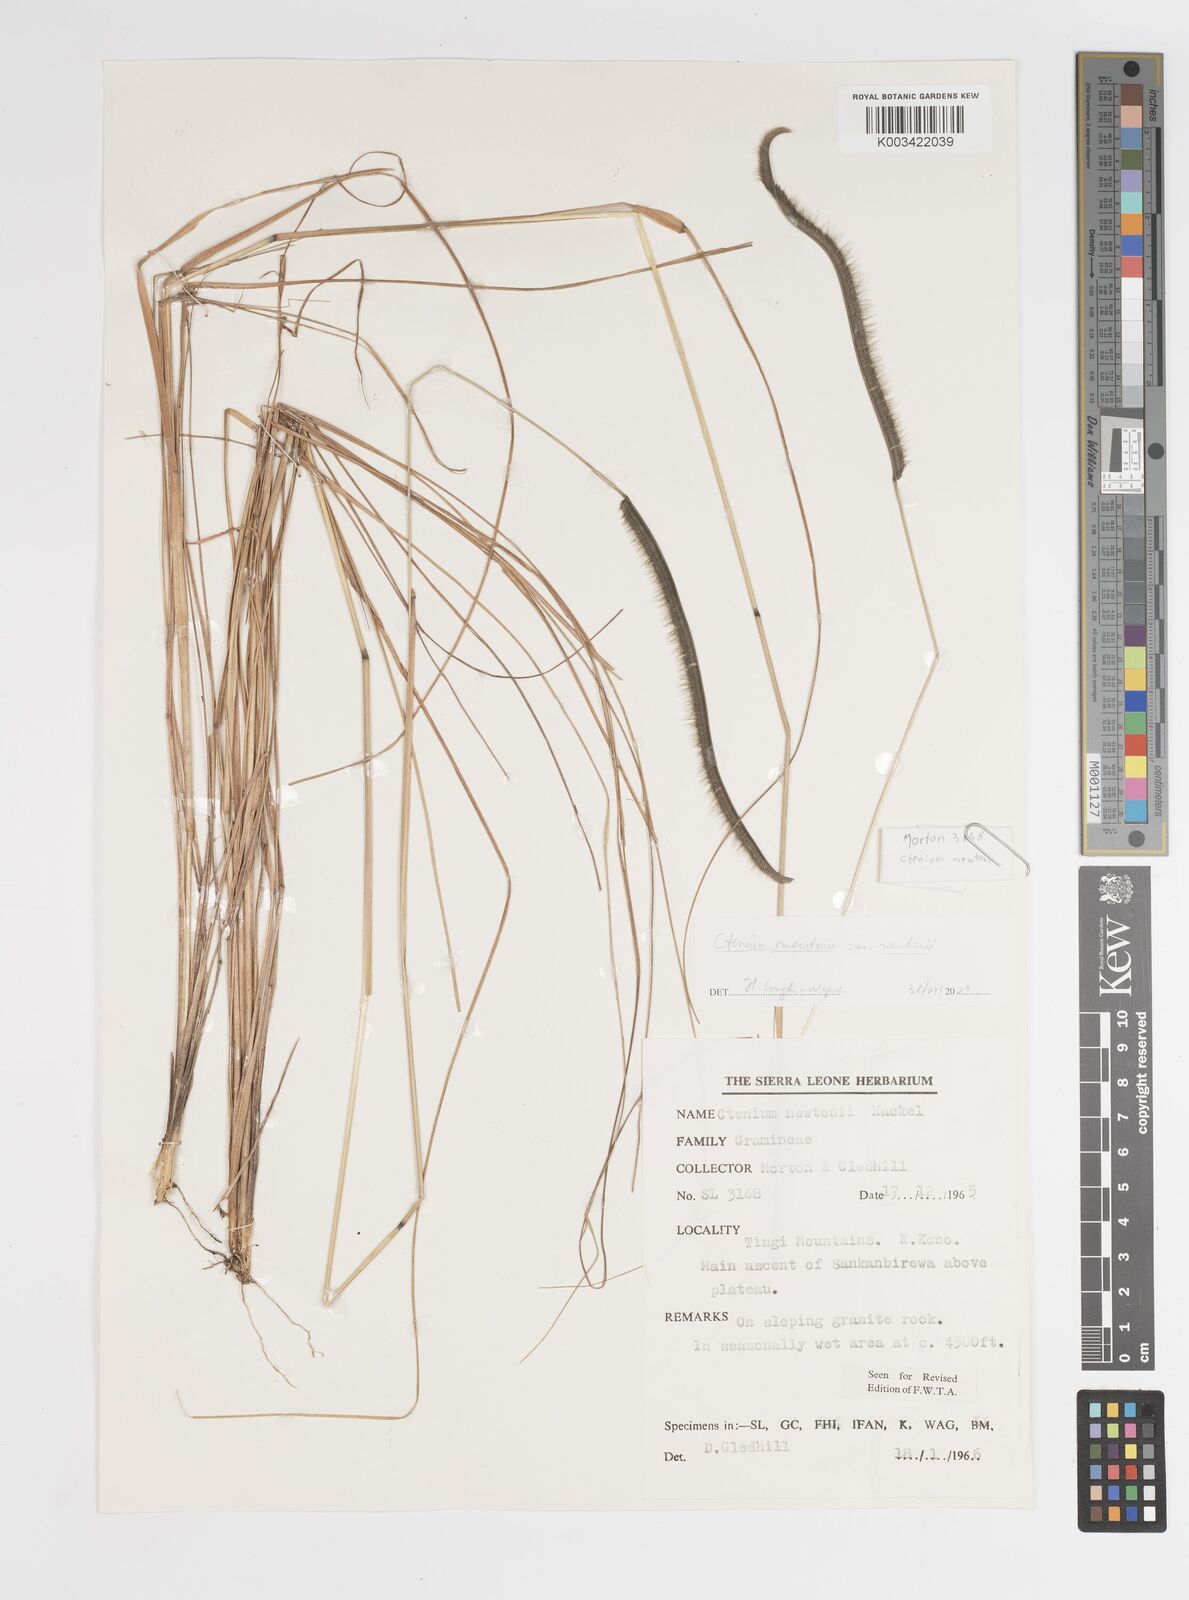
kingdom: Plantae
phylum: Tracheophyta
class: Liliopsida
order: Poales
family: Poaceae
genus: Ctenium
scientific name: Ctenium newtonii
